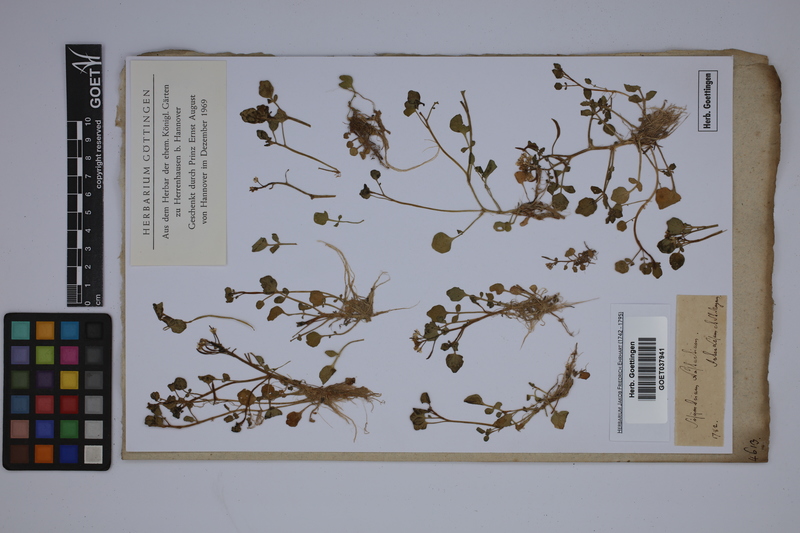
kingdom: Plantae
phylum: Tracheophyta
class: Magnoliopsida
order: Brassicales
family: Brassicaceae
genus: Nasturtium
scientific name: Nasturtium officinale
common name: Watercress
